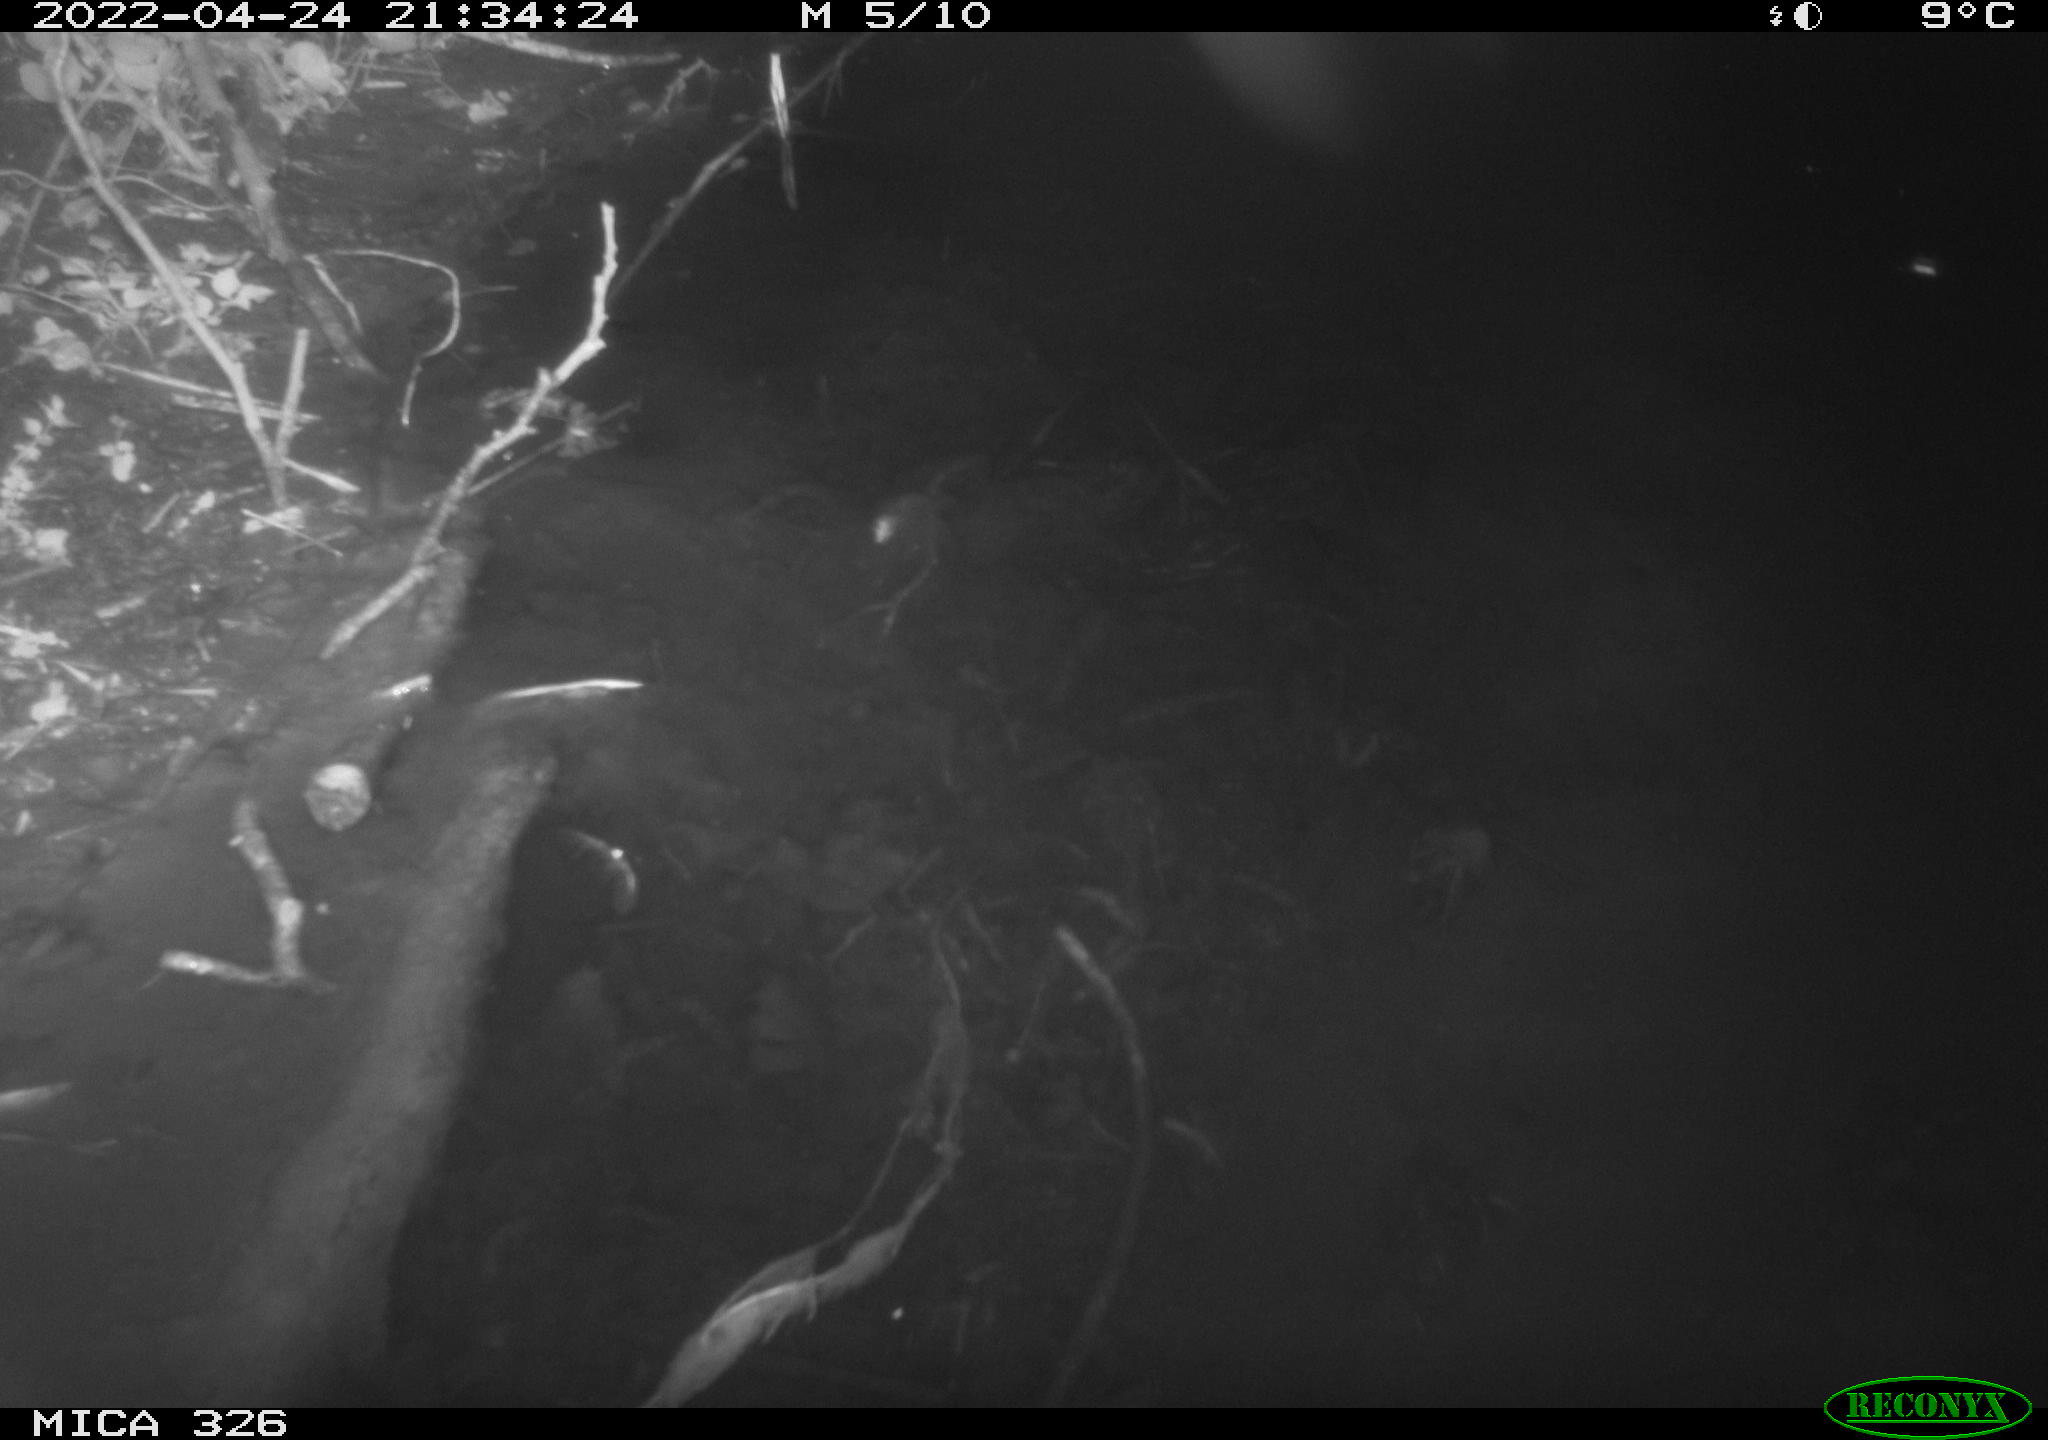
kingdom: Animalia
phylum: Chordata
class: Mammalia
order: Rodentia
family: Muridae
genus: Rattus
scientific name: Rattus norvegicus
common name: Brown rat
